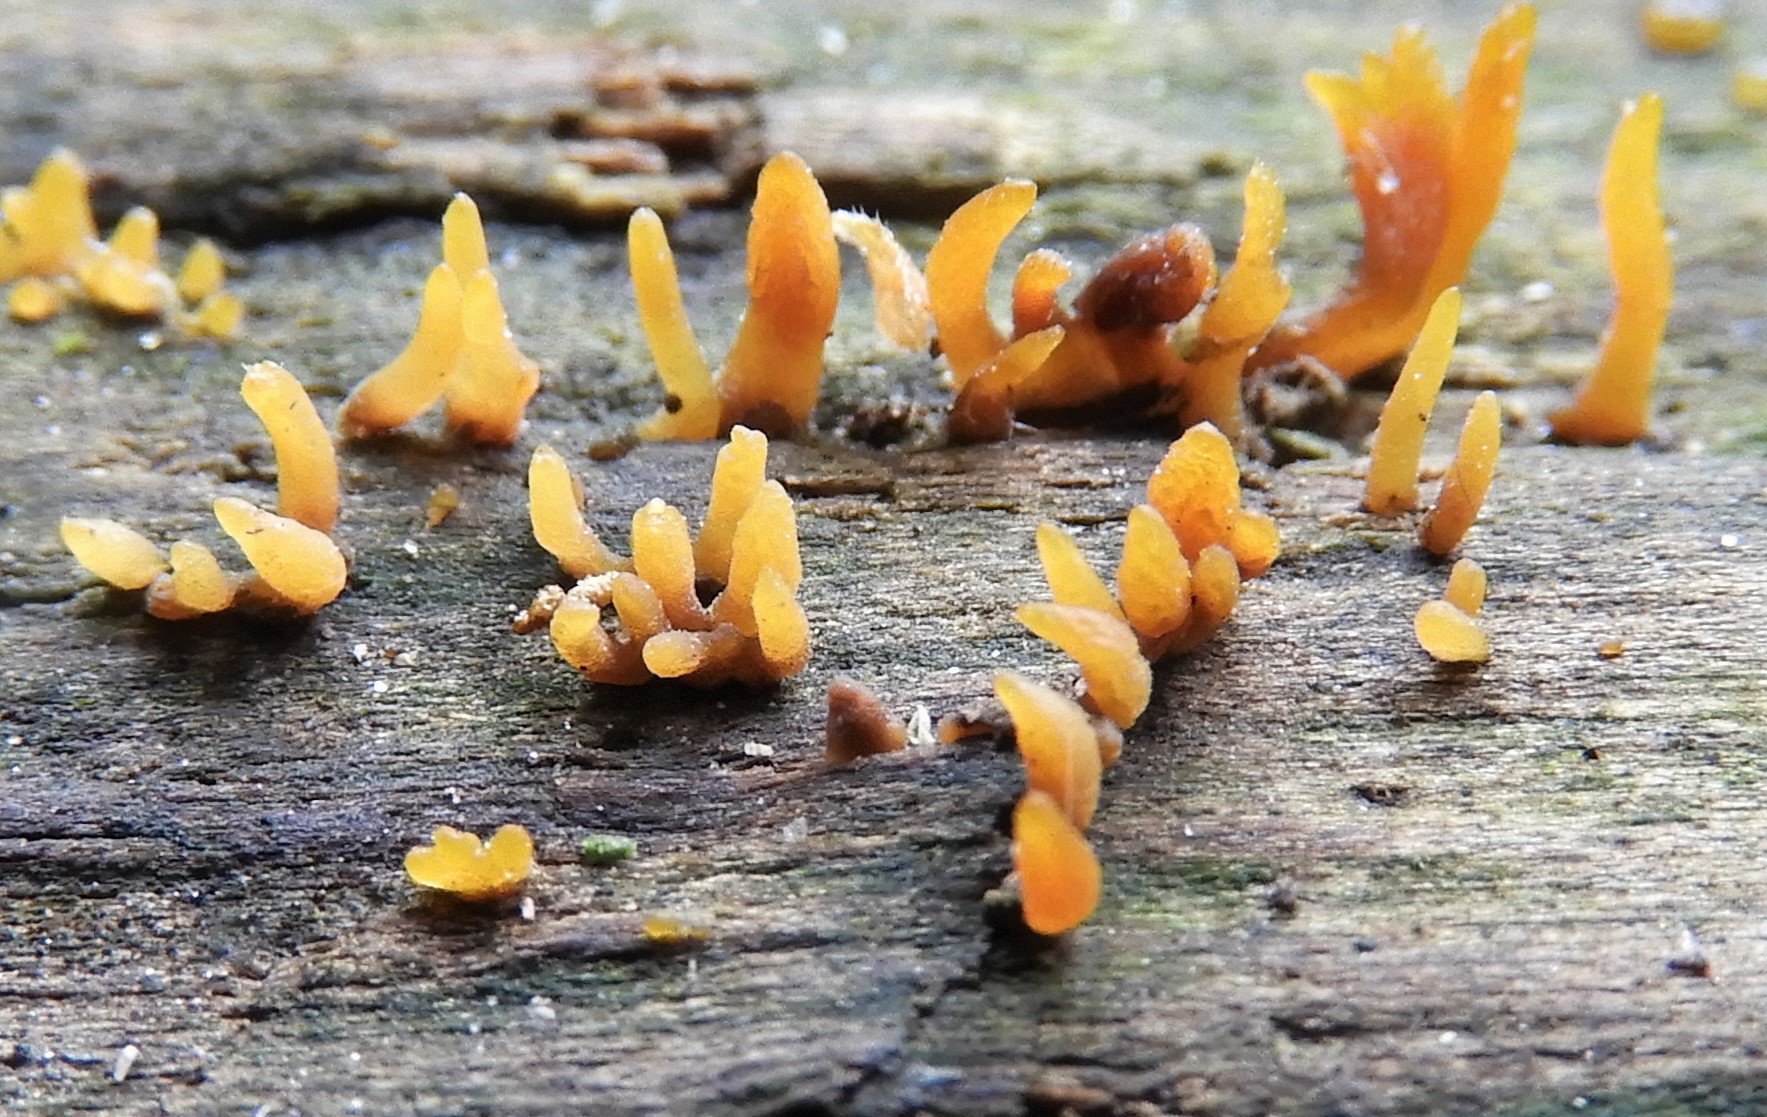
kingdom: Fungi
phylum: Basidiomycota
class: Dacrymycetes
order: Dacrymycetales
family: Dacrymycetaceae
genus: Calocera
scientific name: Calocera cornea
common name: liden guldgaffel
